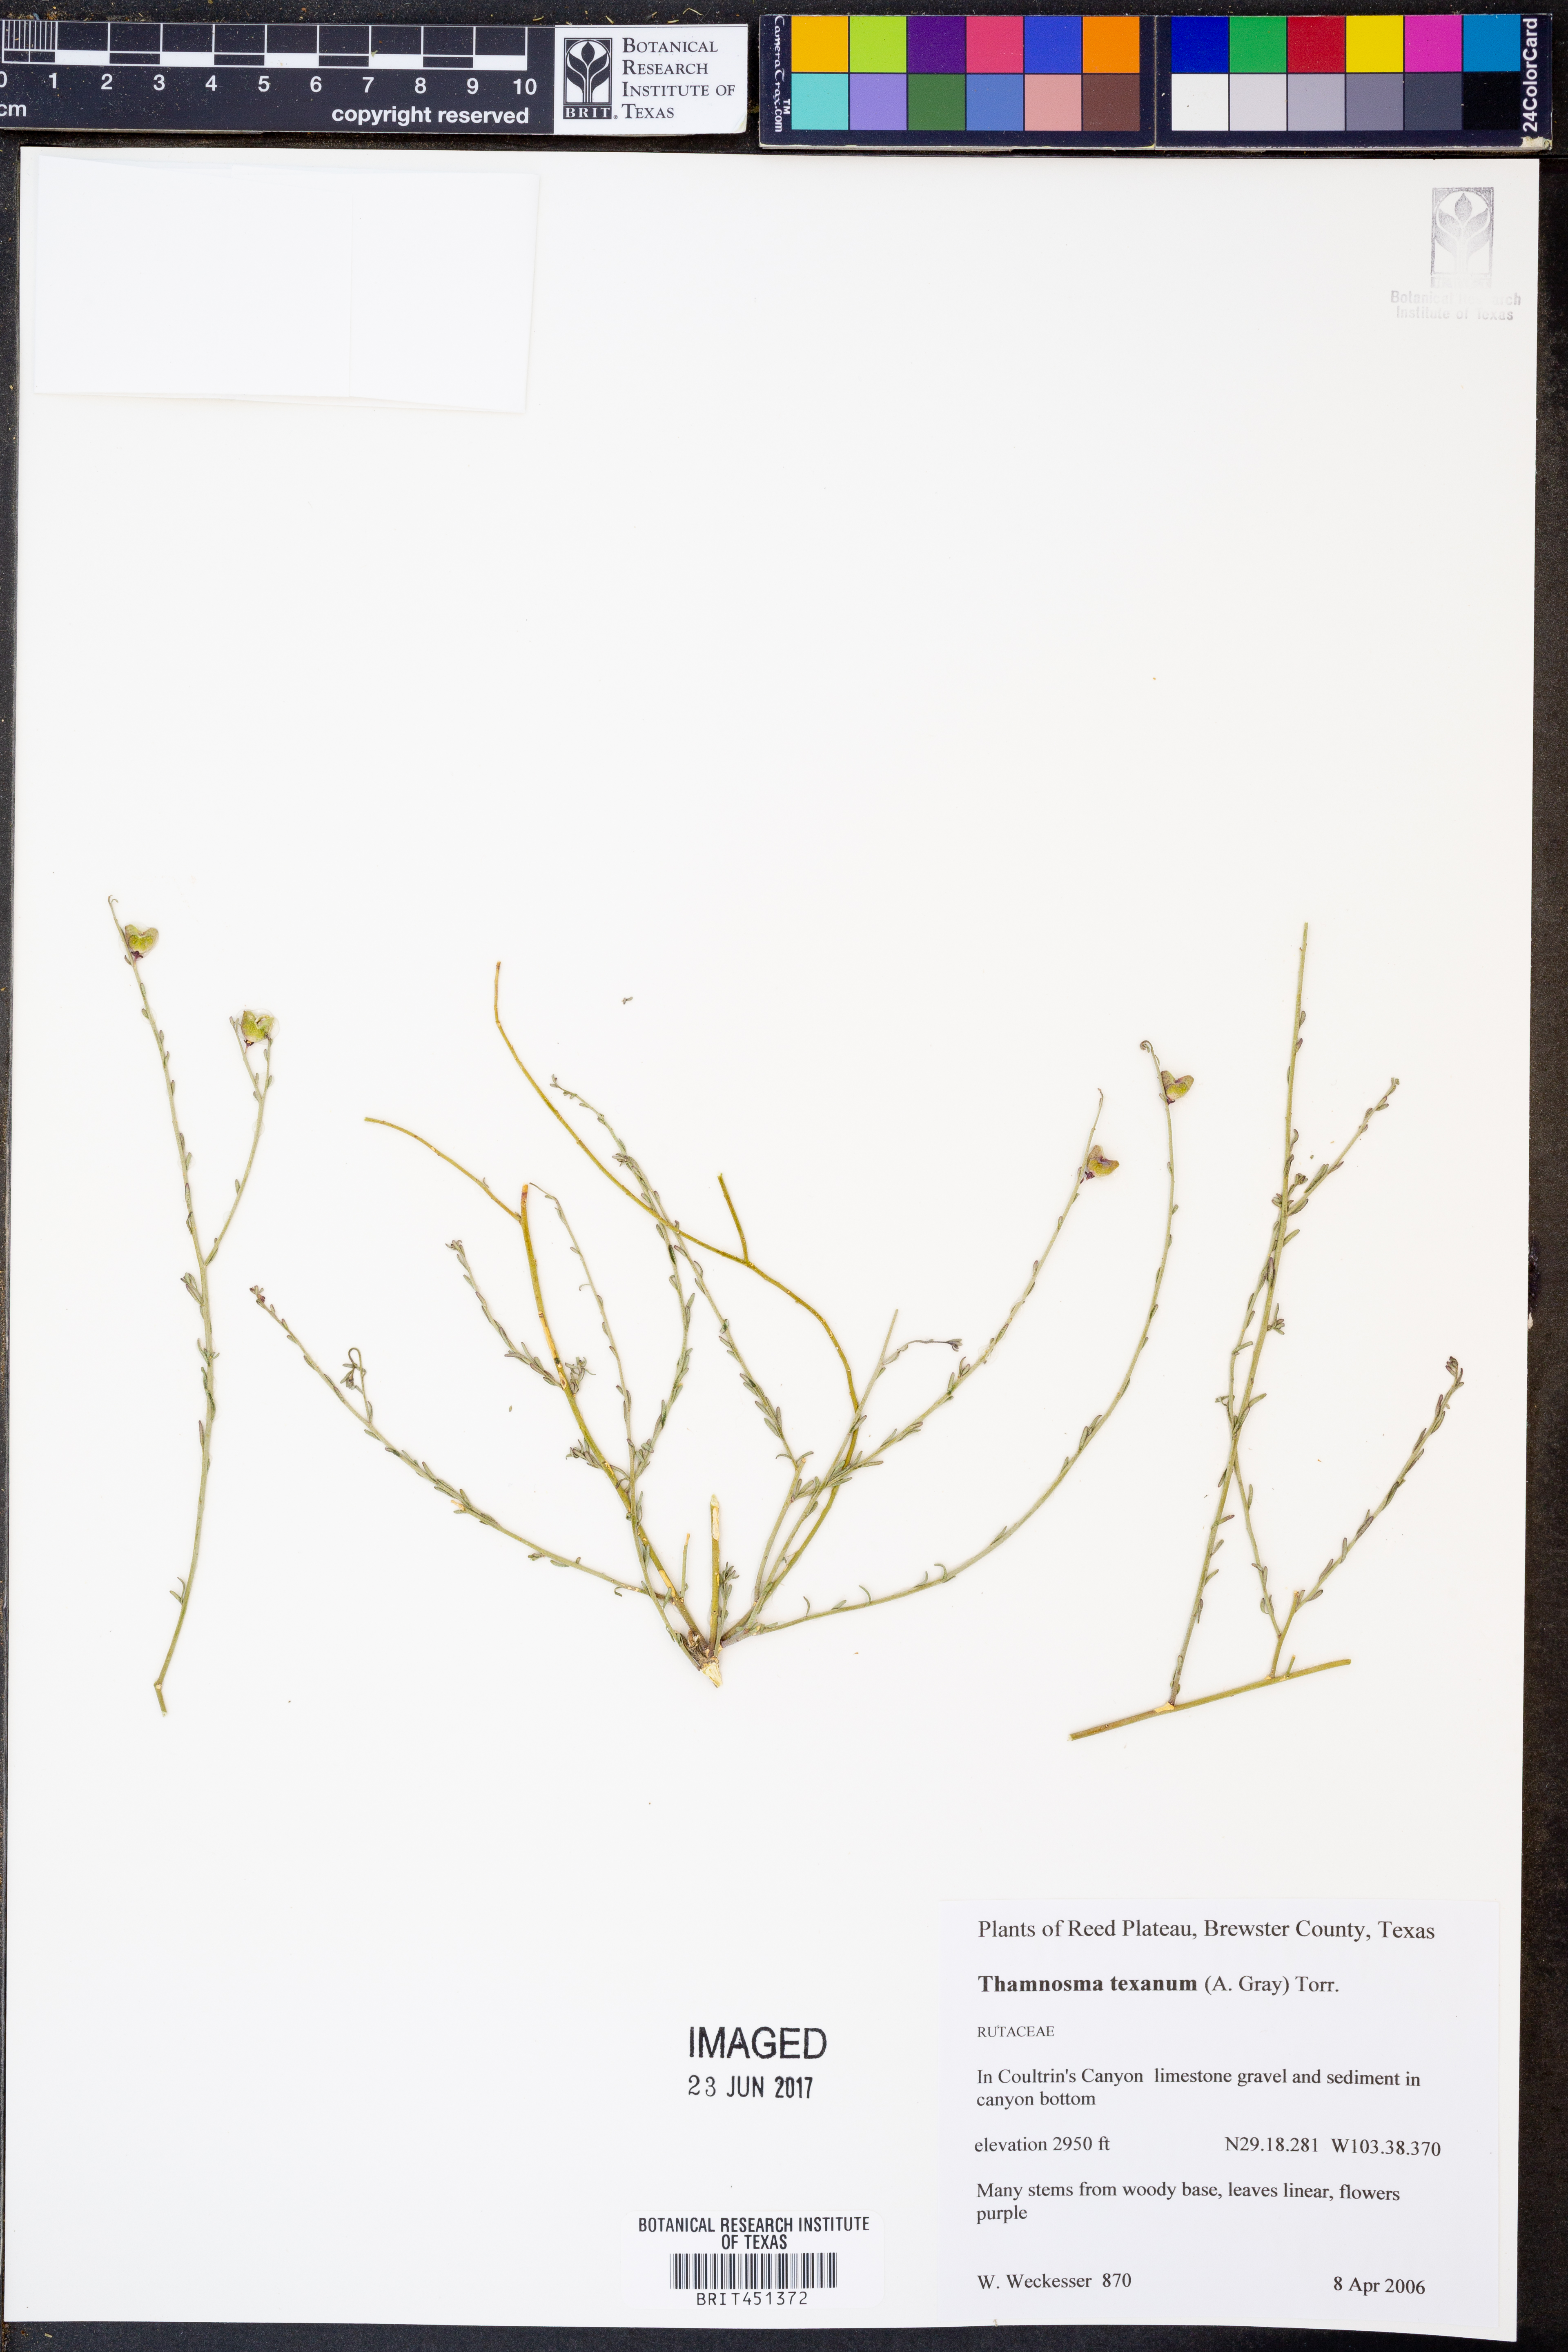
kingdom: Plantae
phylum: Tracheophyta
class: Magnoliopsida
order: Sapindales
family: Rutaceae
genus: Thamnosma
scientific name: Thamnosma texana
